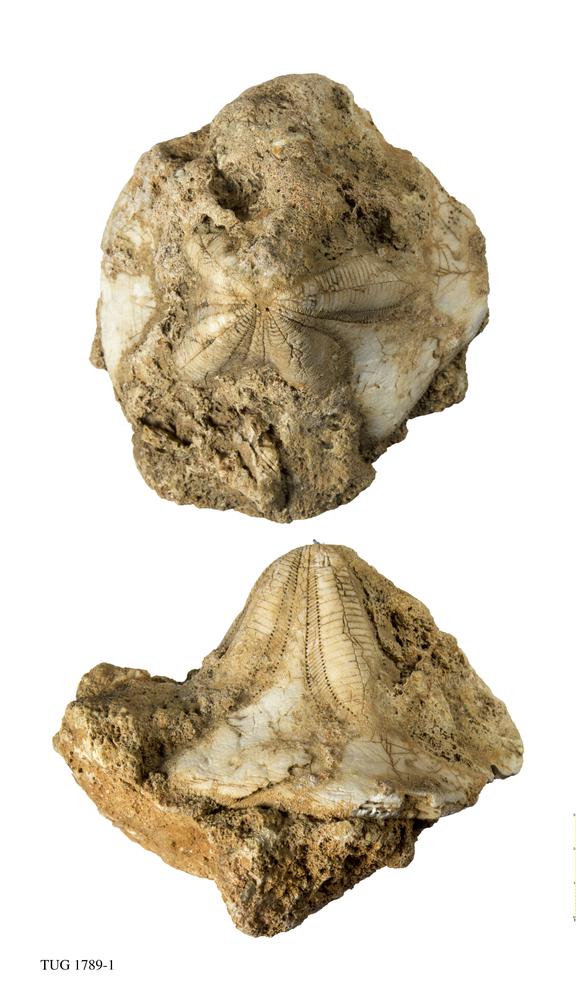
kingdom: Animalia
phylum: Echinodermata
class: Echinoidea
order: Clypeasteroida
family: Clypeasteridae
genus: Clypeaster
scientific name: Clypeaster
